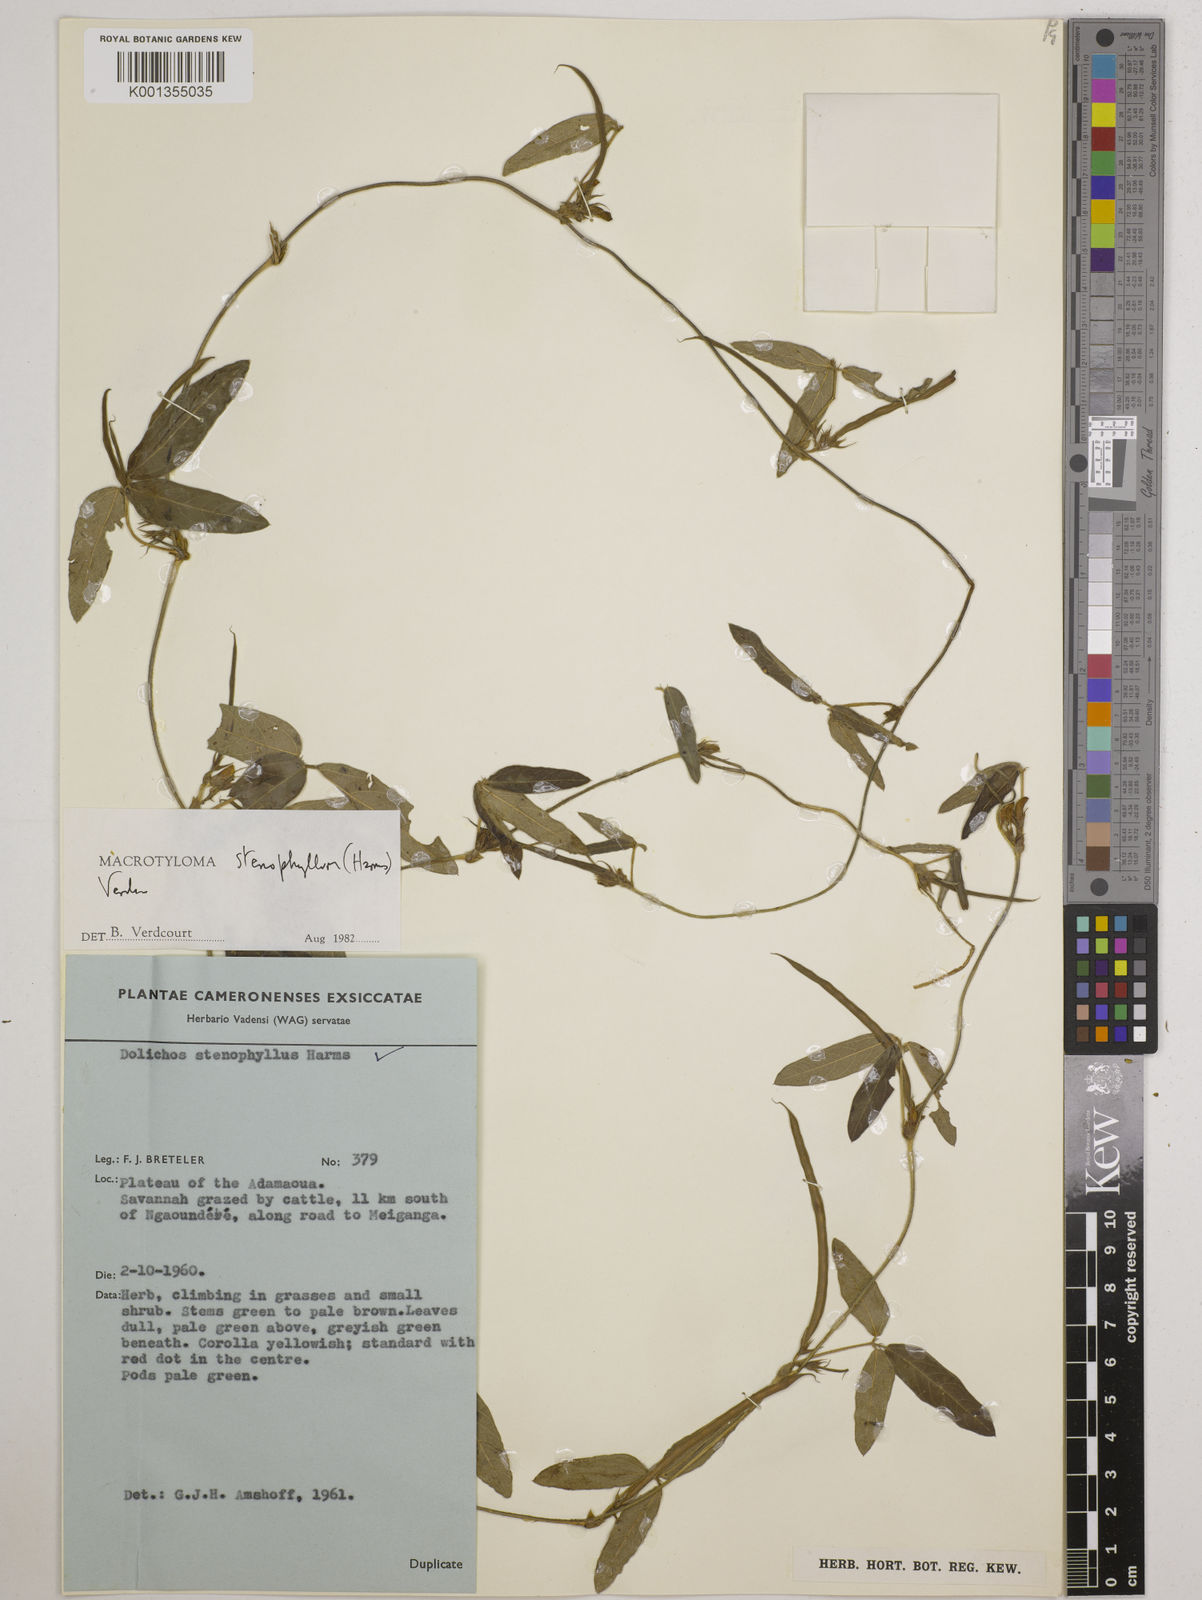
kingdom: Plantae
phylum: Tracheophyta
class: Magnoliopsida
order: Fabales
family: Fabaceae
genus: Macrotyloma
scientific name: Macrotyloma stenophyllum
